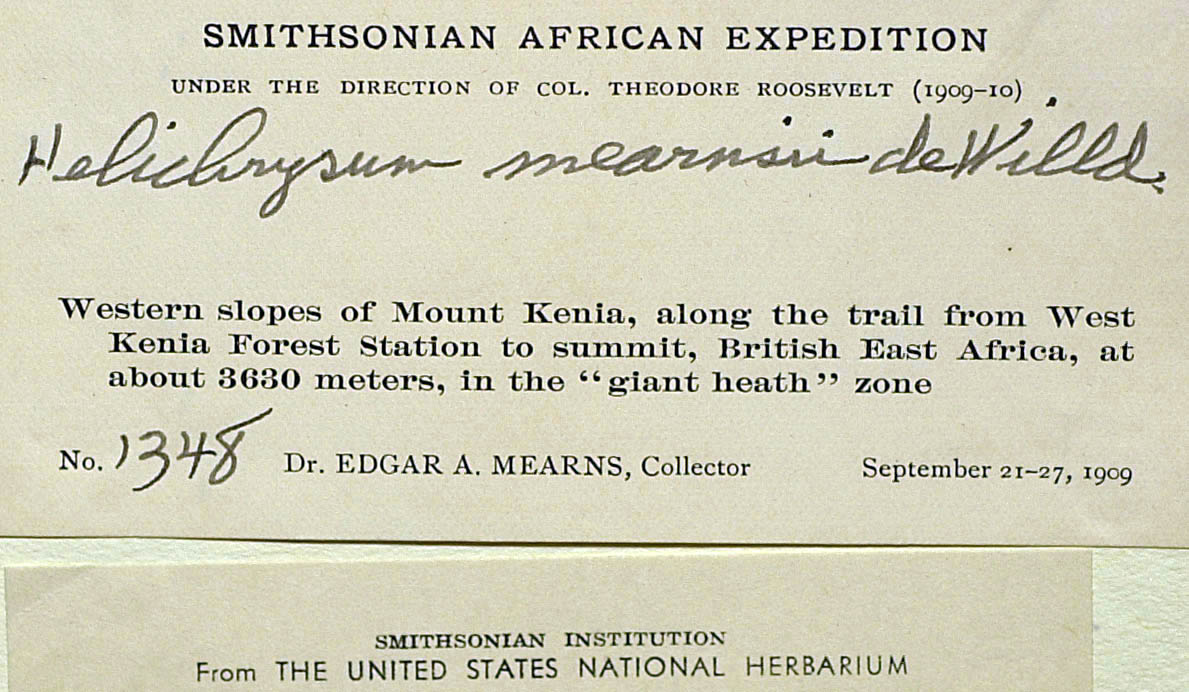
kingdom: Plantae
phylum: Tracheophyta
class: Magnoliopsida
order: Asterales
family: Asteraceae
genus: Helichrysum
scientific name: Helichrysum ellipticifolium
